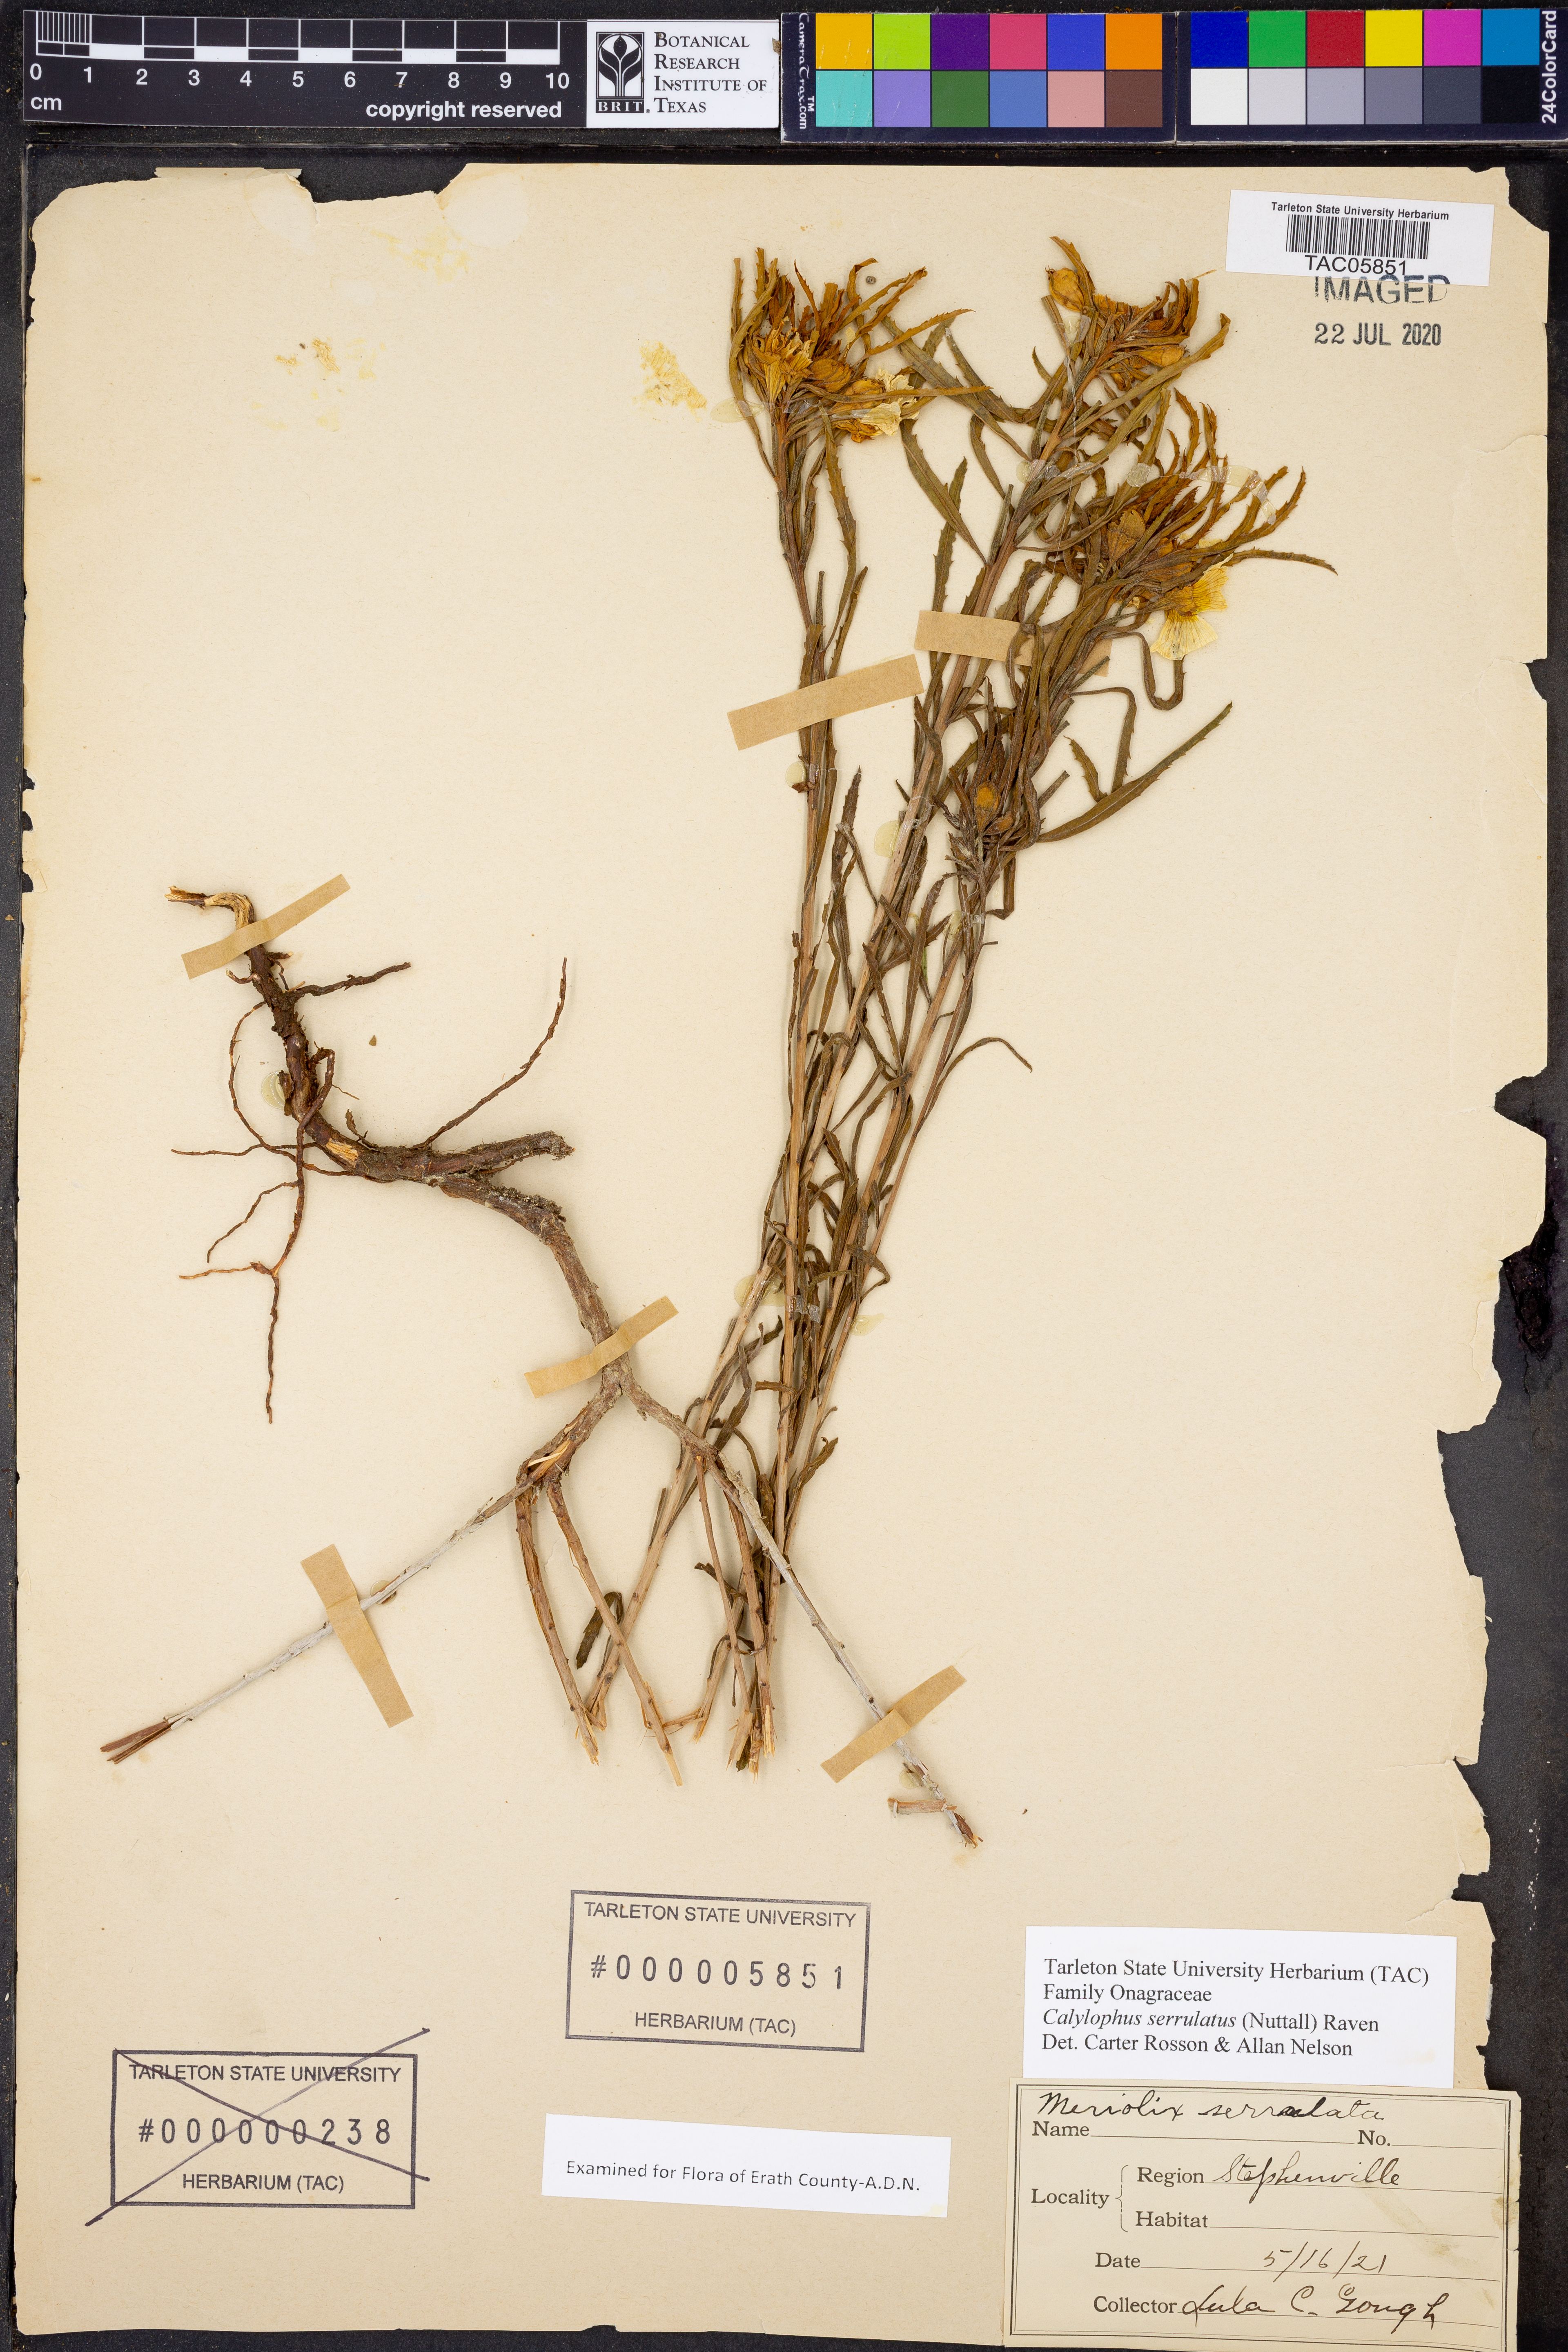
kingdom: Plantae
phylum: Tracheophyta
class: Magnoliopsida
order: Myrtales
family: Onagraceae
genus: Oenothera
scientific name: Oenothera serrulata
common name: Half-shrub calylophus
